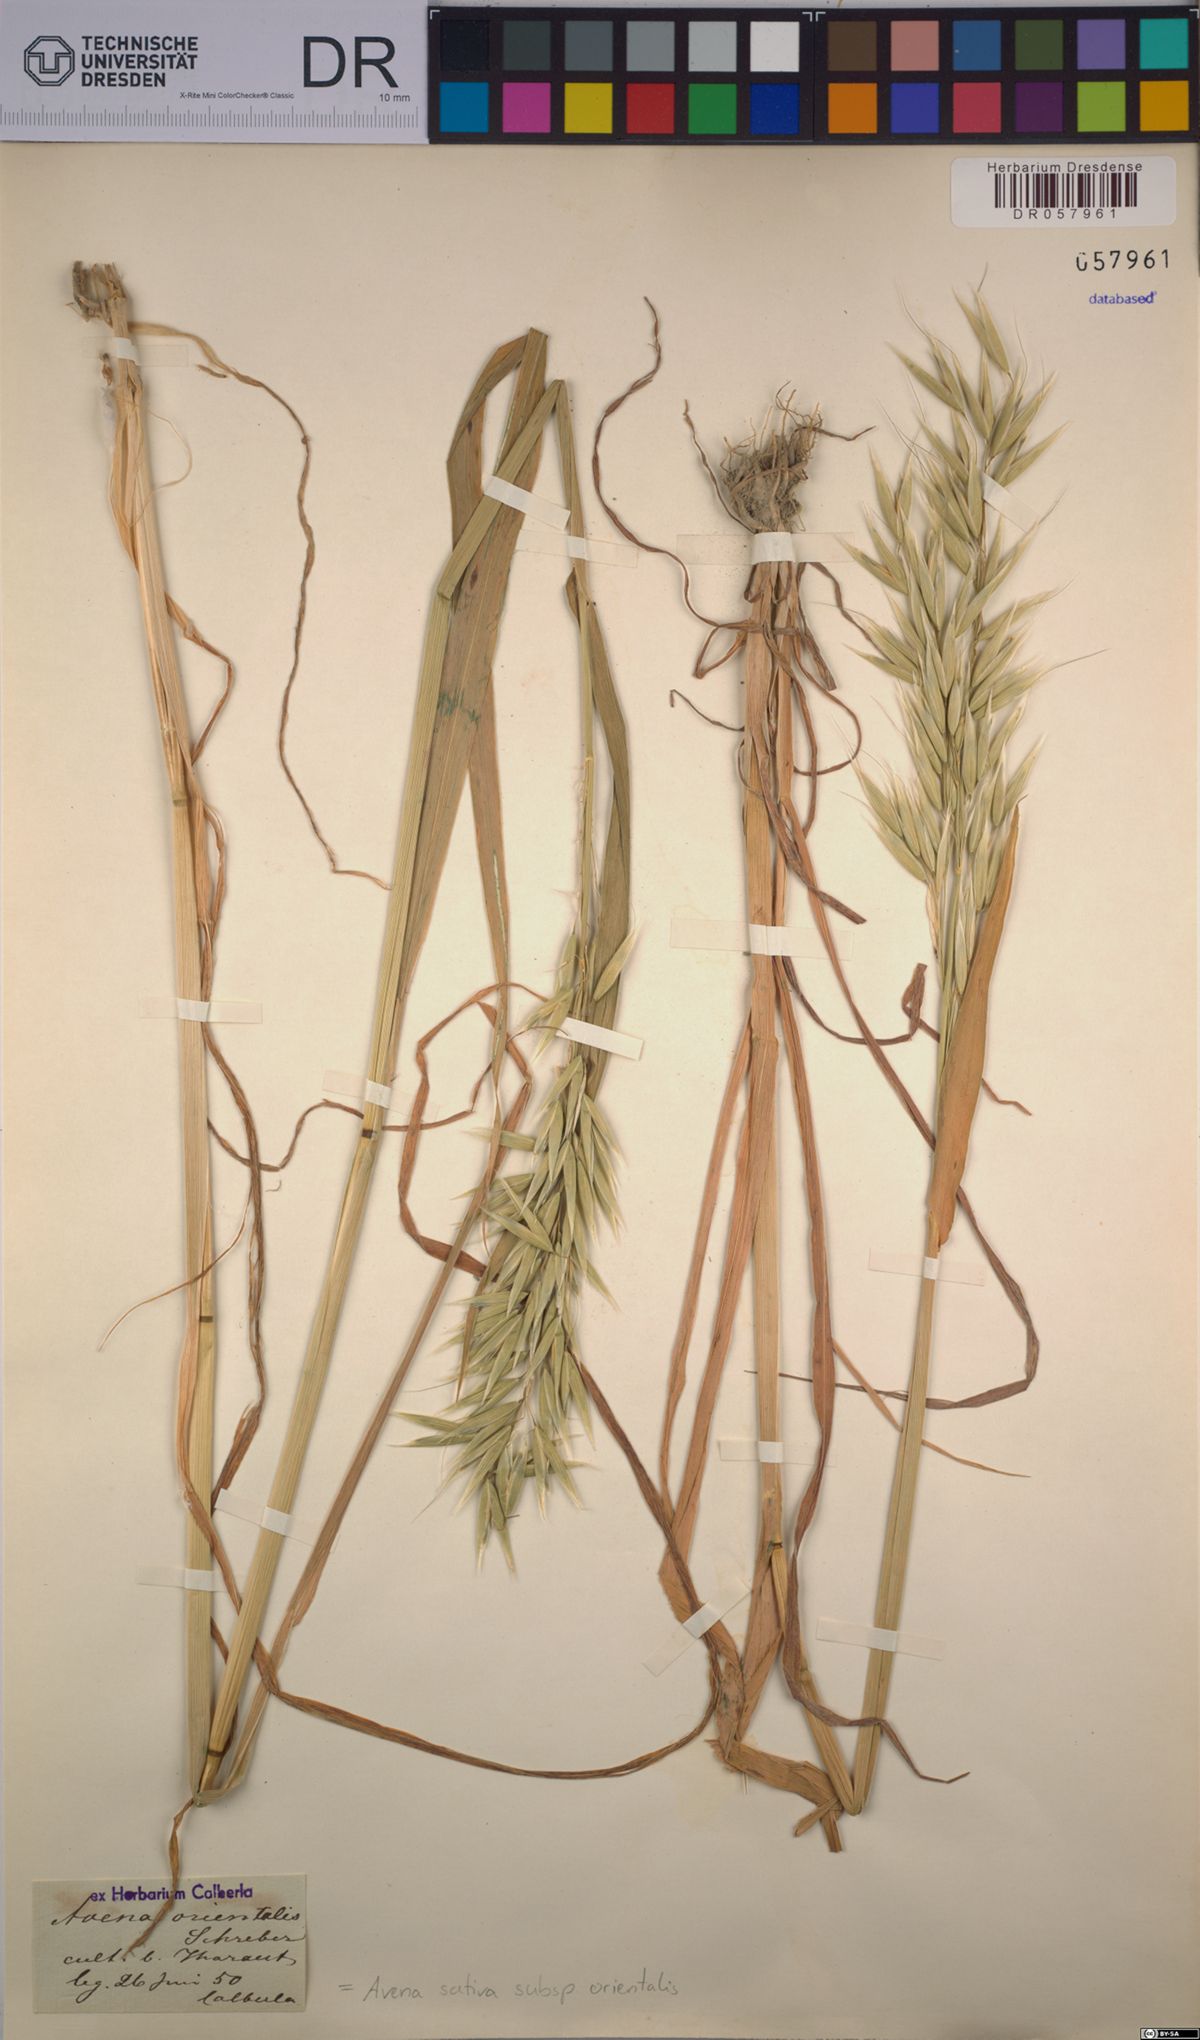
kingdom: Plantae
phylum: Tracheophyta
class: Liliopsida
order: Poales
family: Poaceae
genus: Avena
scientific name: Avena sativa
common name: Oat
